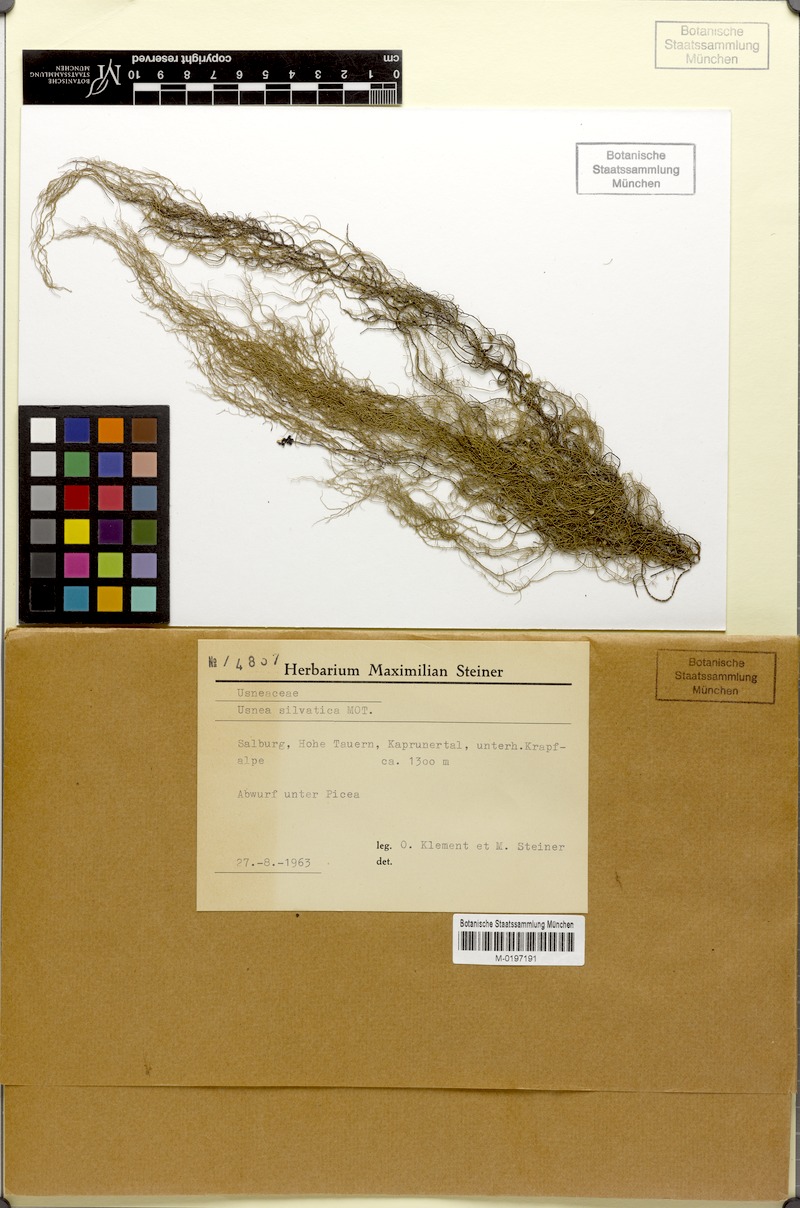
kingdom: Fungi
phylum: Ascomycota
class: Lecanoromycetes
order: Lecanorales
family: Parmeliaceae
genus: Usnea
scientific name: Usnea scabrata
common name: Straw beard lichen
